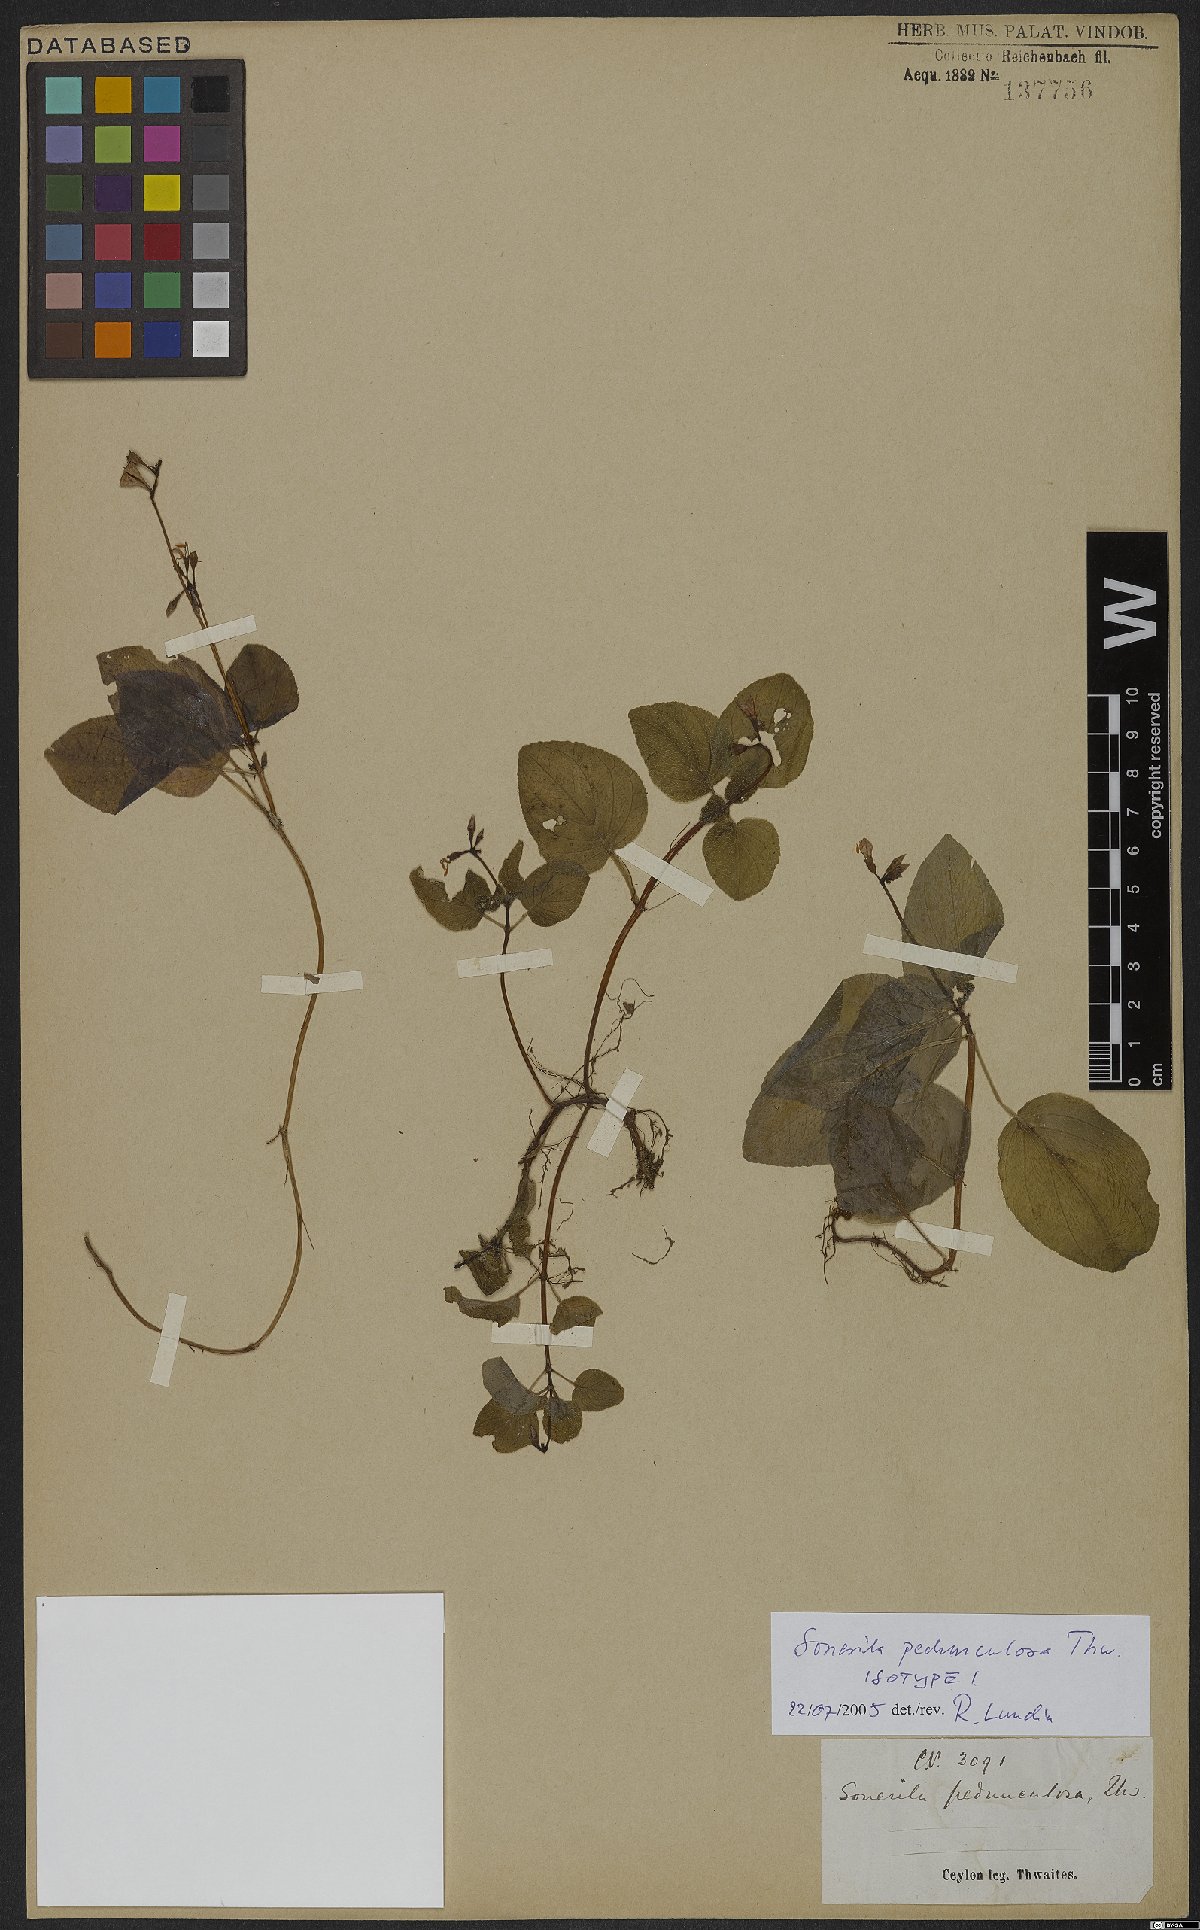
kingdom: Plantae
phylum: Tracheophyta
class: Magnoliopsida
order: Myrtales
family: Melastomataceae
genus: Sonerila
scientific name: Sonerila pedunculosa
